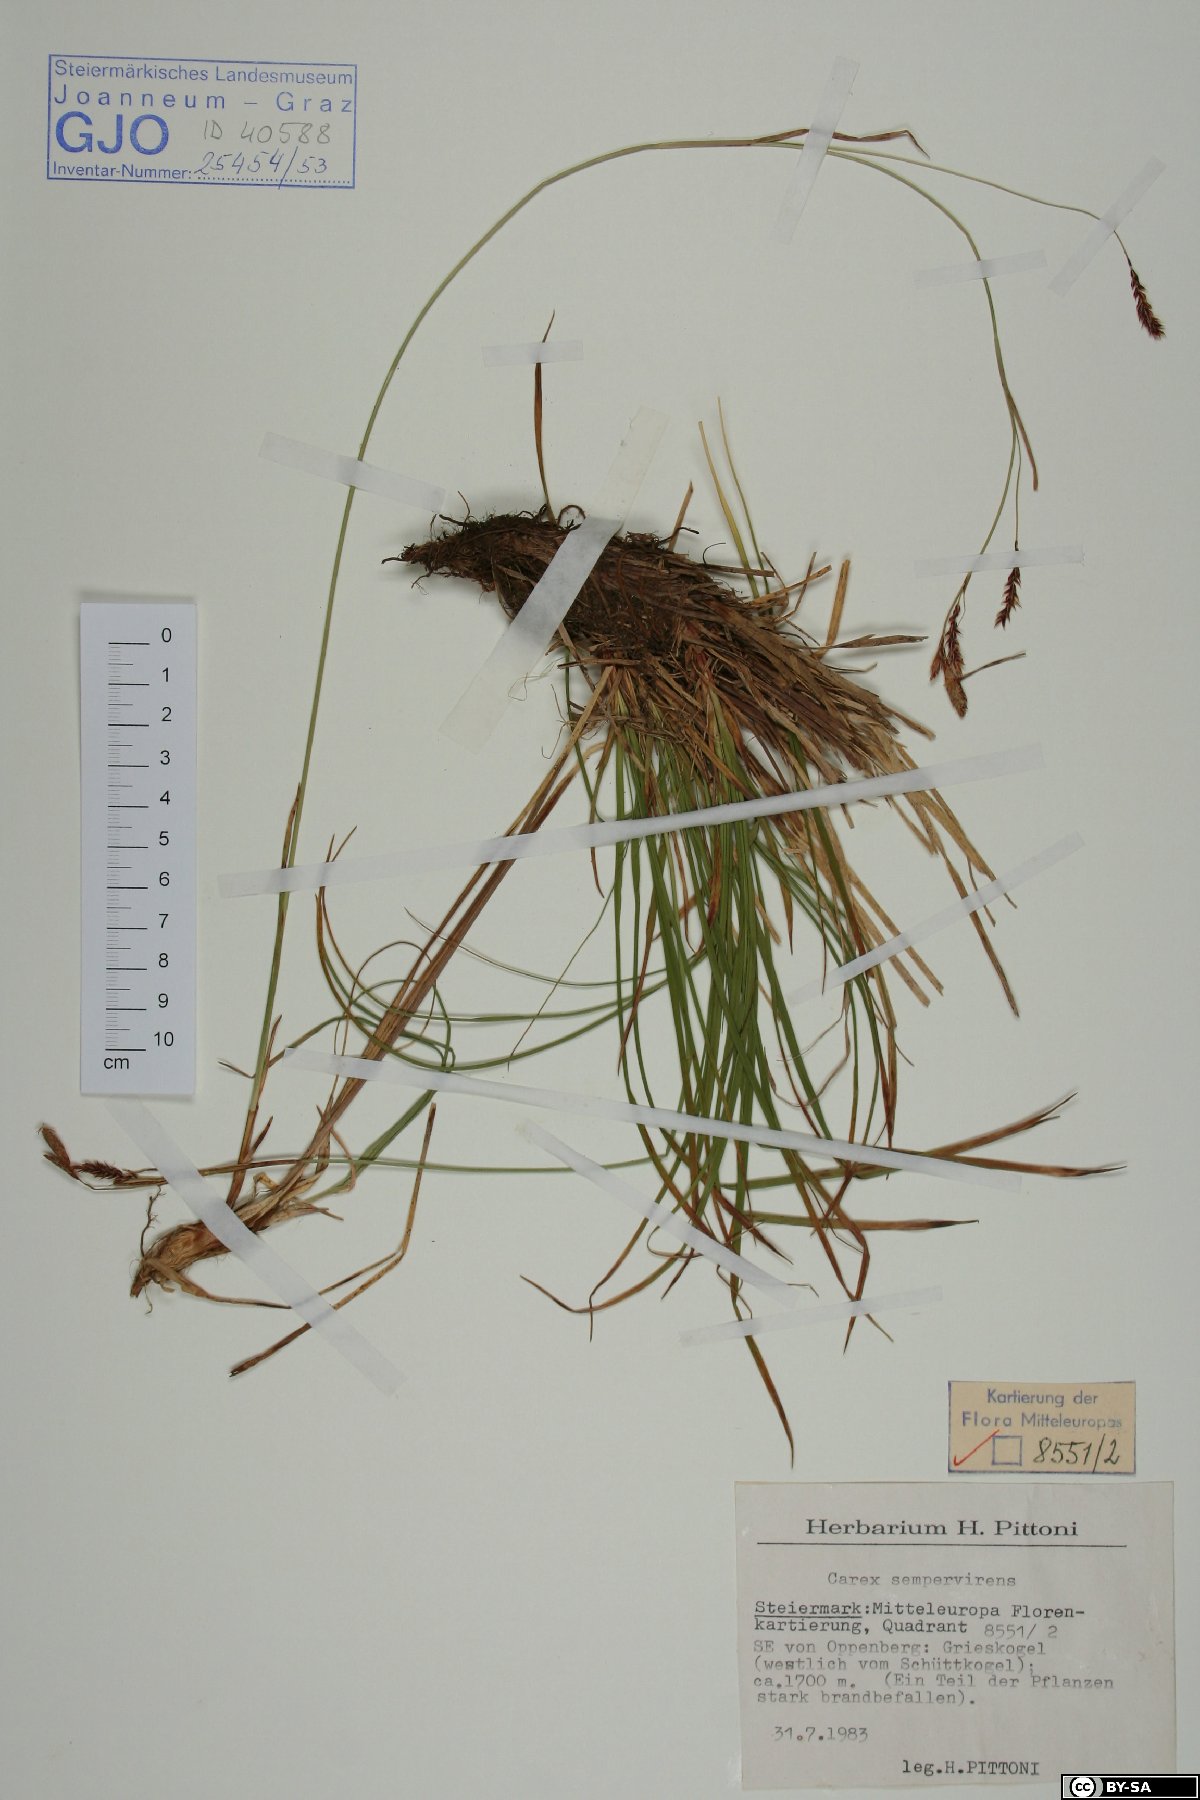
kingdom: Plantae
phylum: Tracheophyta
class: Liliopsida
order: Poales
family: Cyperaceae
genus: Carex
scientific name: Carex sempervirens
